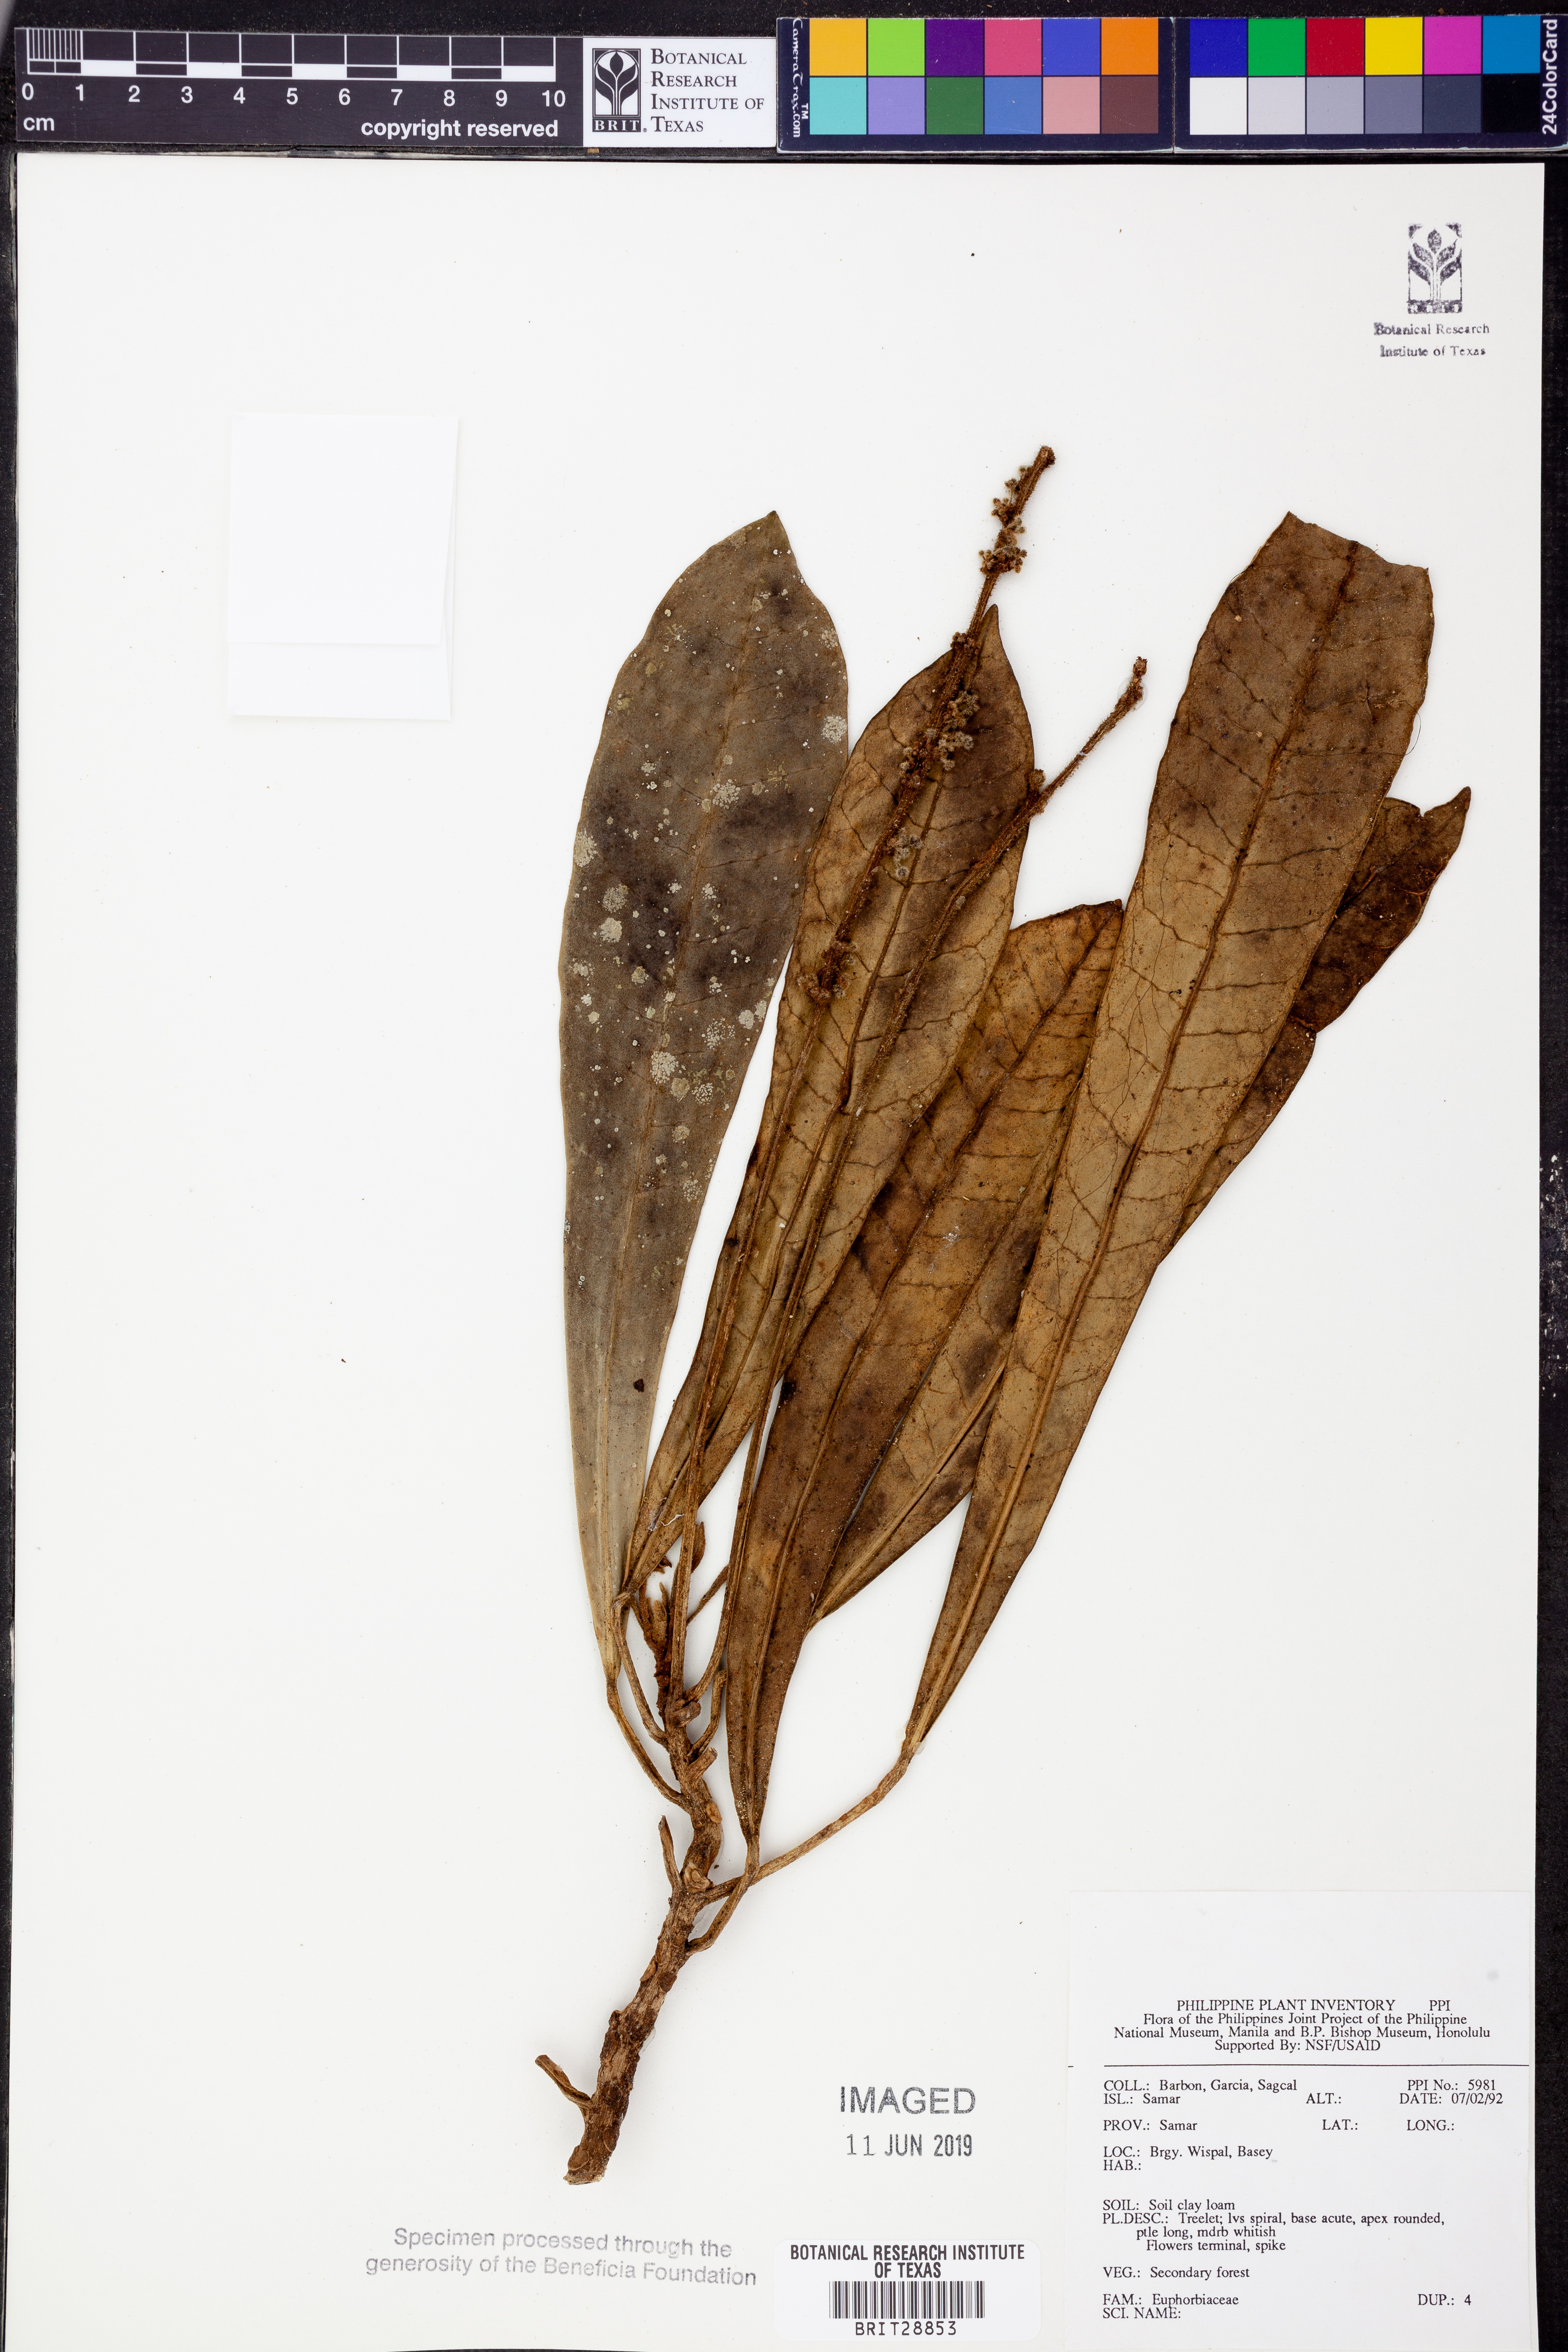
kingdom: Plantae
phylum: Tracheophyta
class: Magnoliopsida
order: Malpighiales
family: Euphorbiaceae
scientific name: Euphorbiaceae
